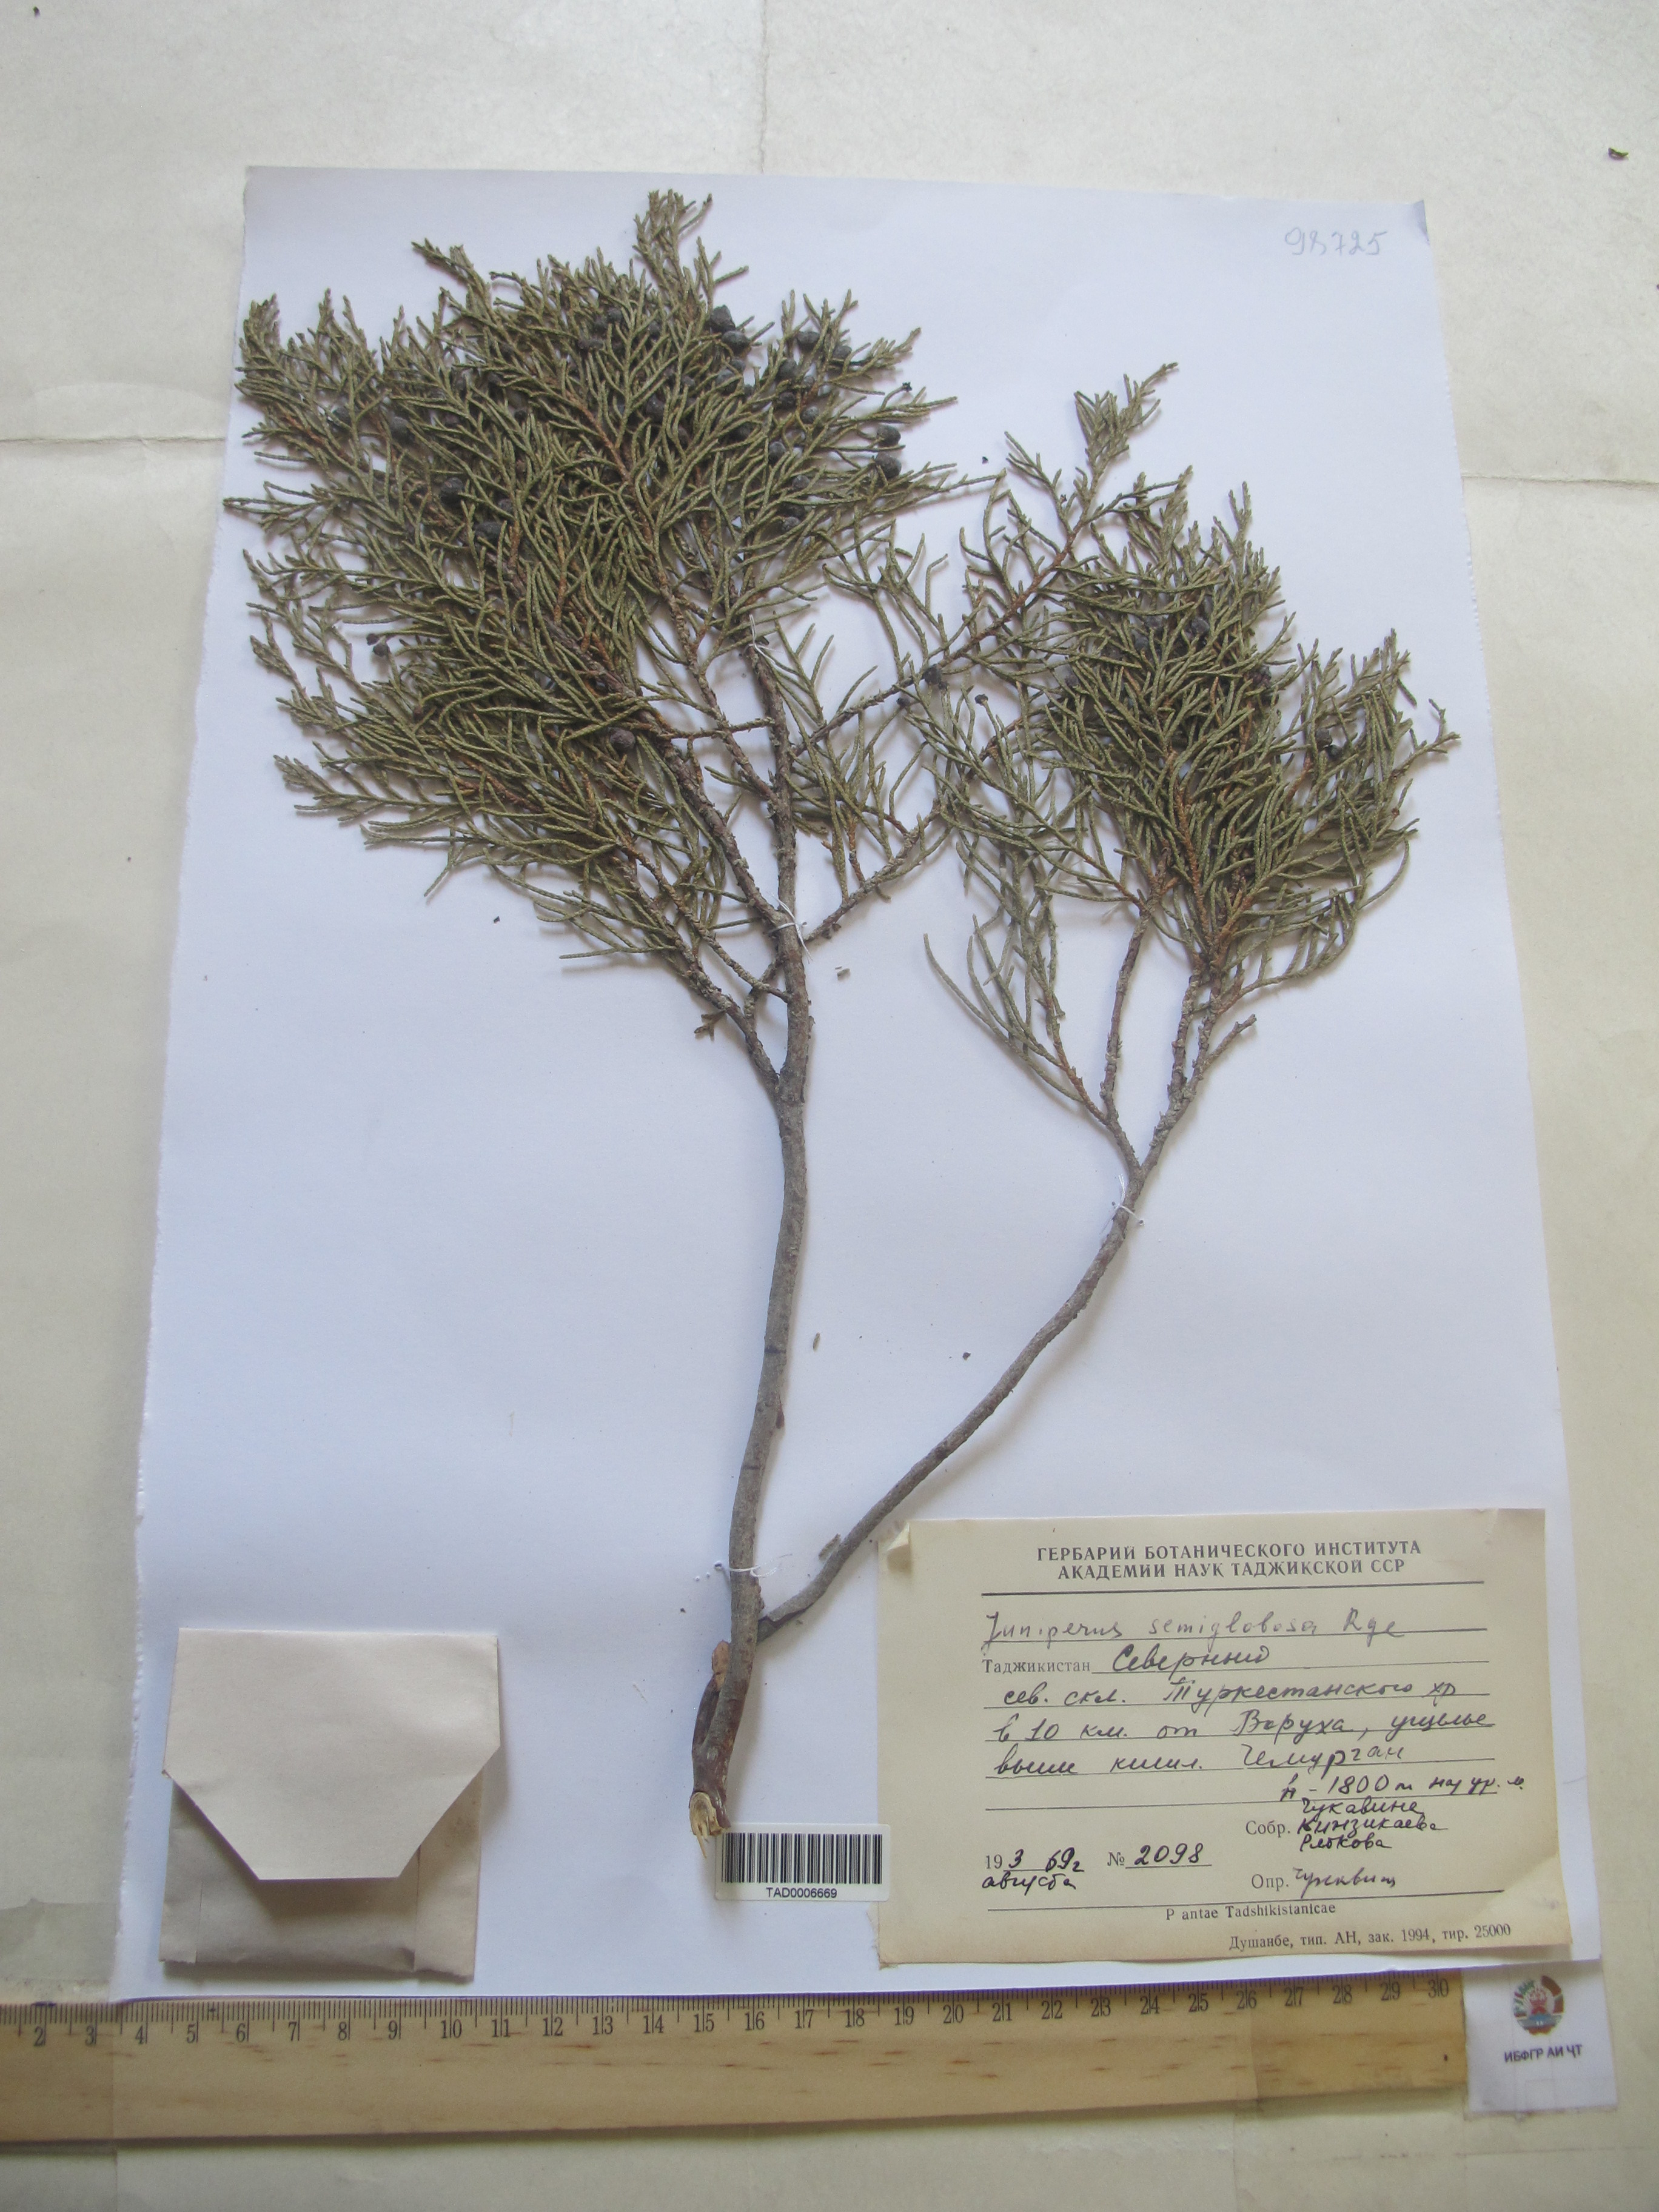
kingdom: Plantae
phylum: Tracheophyta
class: Pinopsida
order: Pinales
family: Cupressaceae
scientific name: Cupressaceae
